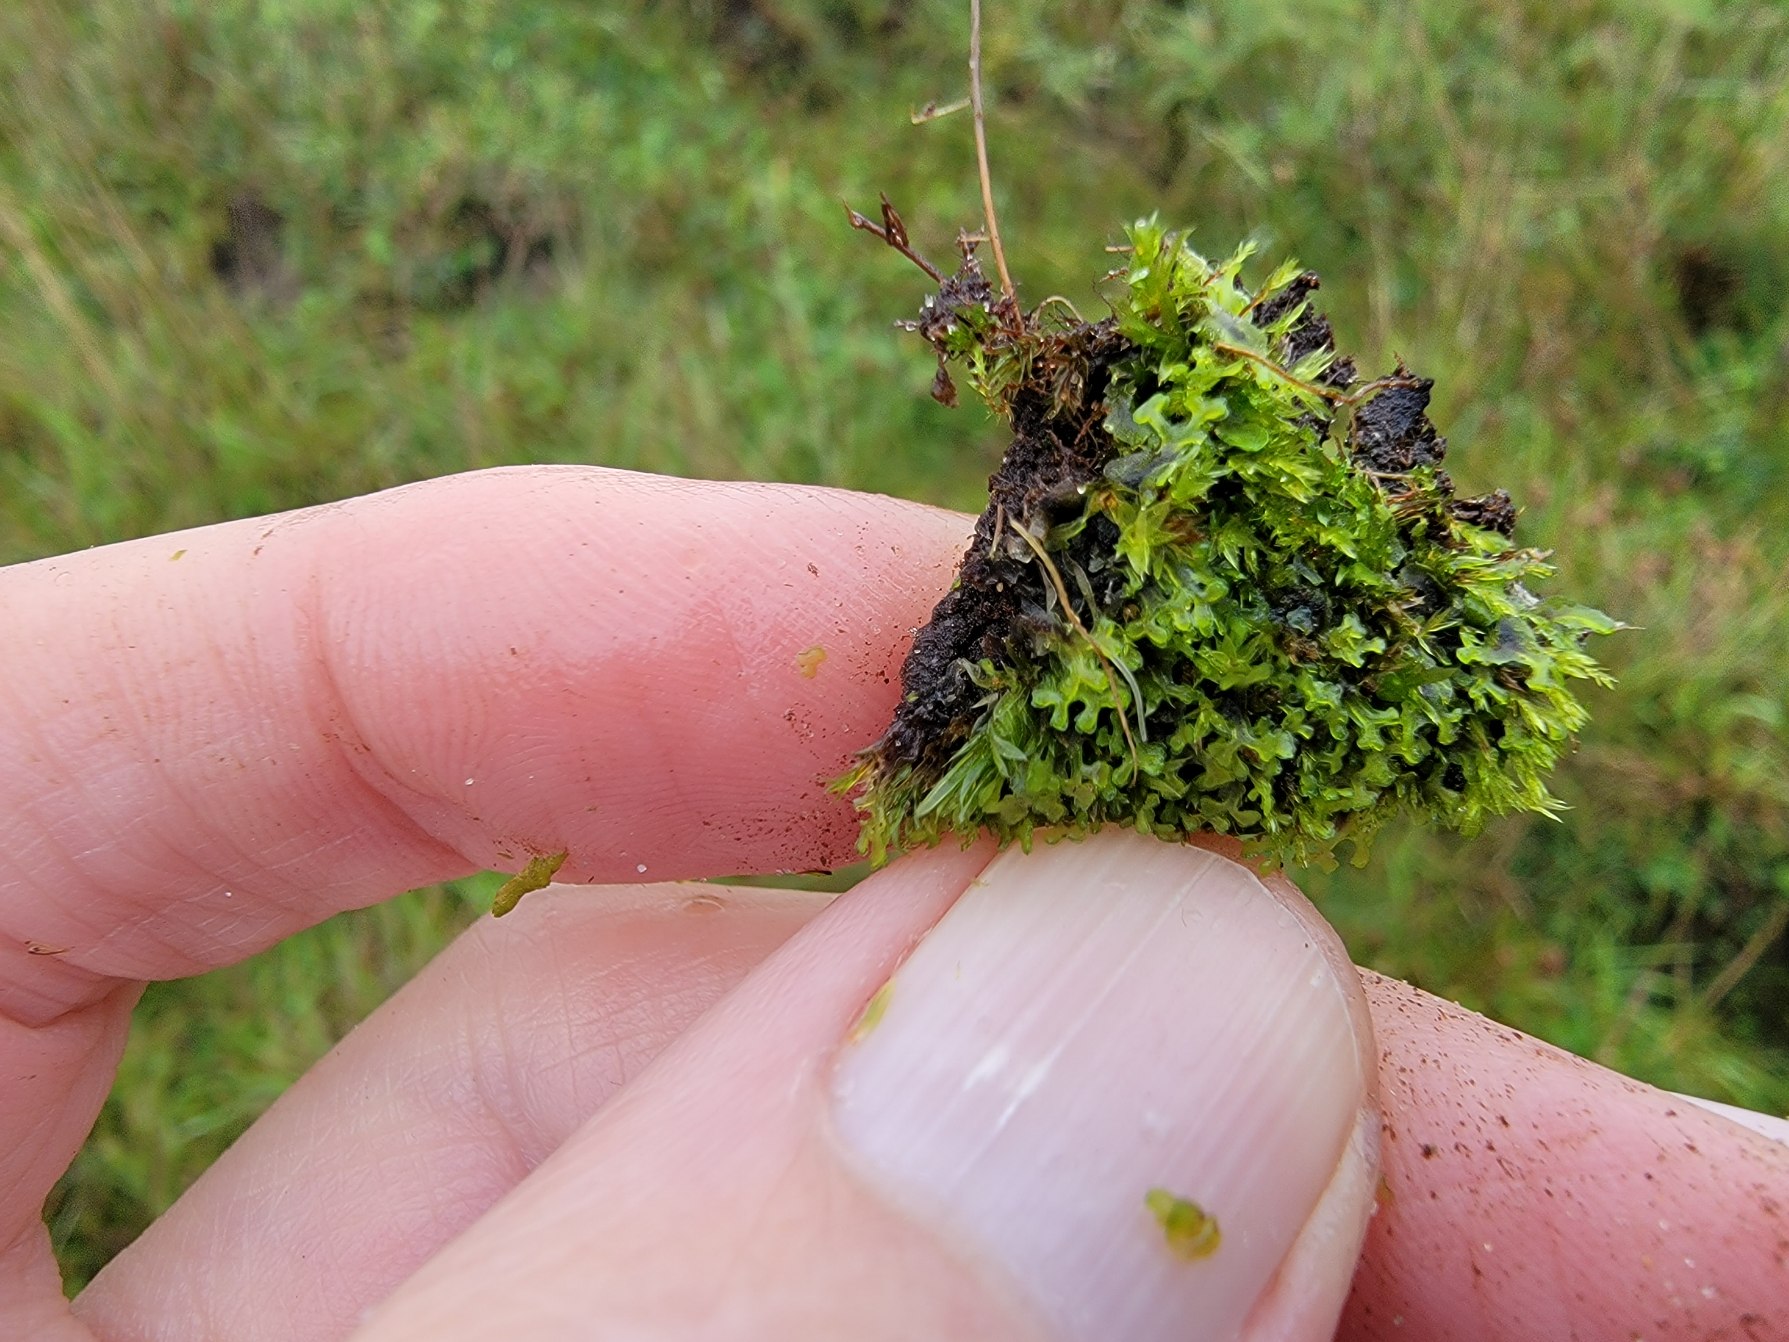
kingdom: Plantae
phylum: Marchantiophyta
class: Jungermanniopsida
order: Pelliales
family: Pelliaceae
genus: Apopellia
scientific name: Apopellia endiviifolia
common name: Fliget ribbeløv
